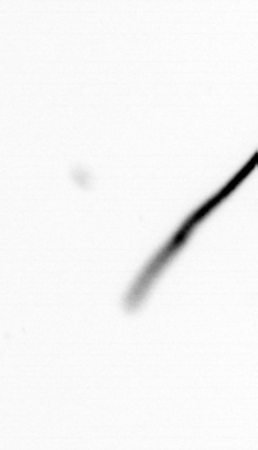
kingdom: Chromista
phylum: Ochrophyta
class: Bacillariophyceae
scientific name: Bacillariophyceae
